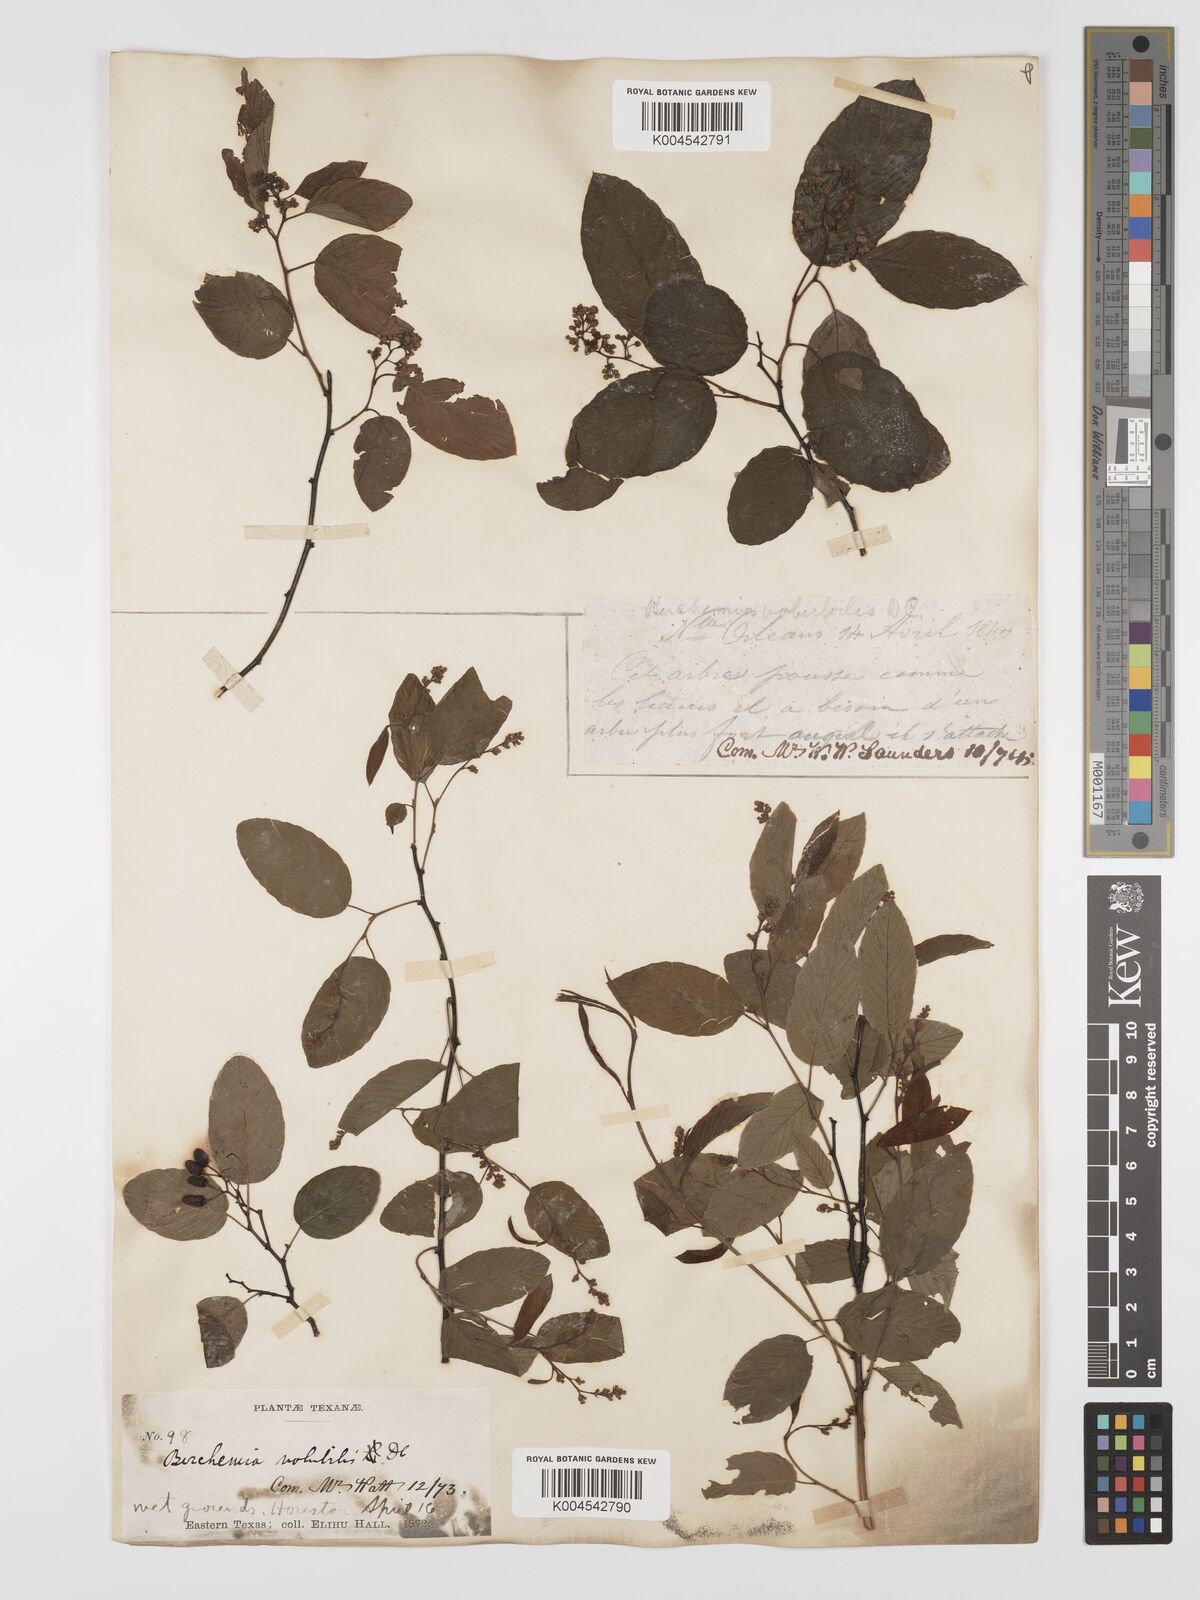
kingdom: Plantae
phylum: Tracheophyta
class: Magnoliopsida
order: Rosales
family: Rhamnaceae
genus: Berchemia
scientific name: Berchemia scandens
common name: Supplejack
